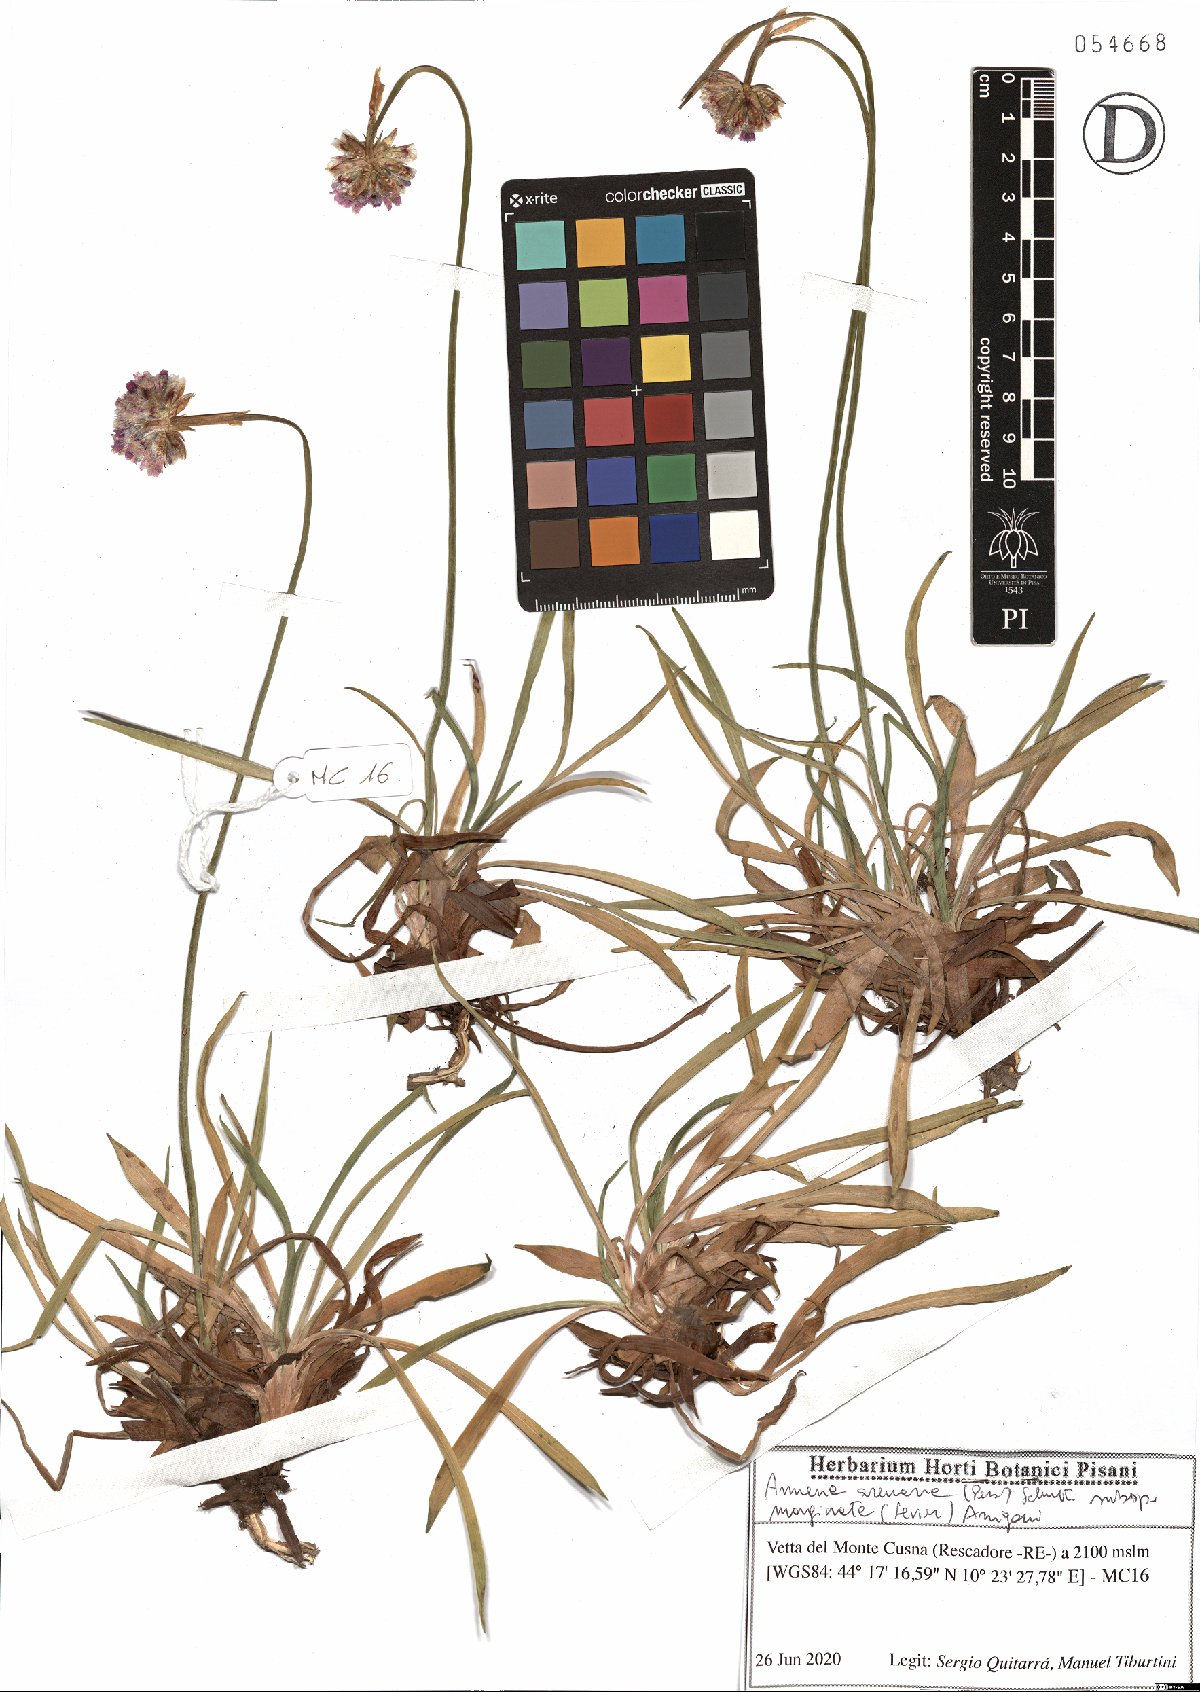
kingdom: Plantae
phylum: Tracheophyta
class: Magnoliopsida
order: Caryophyllales
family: Plumbaginaceae
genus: Armeria
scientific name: Armeria arenaria
